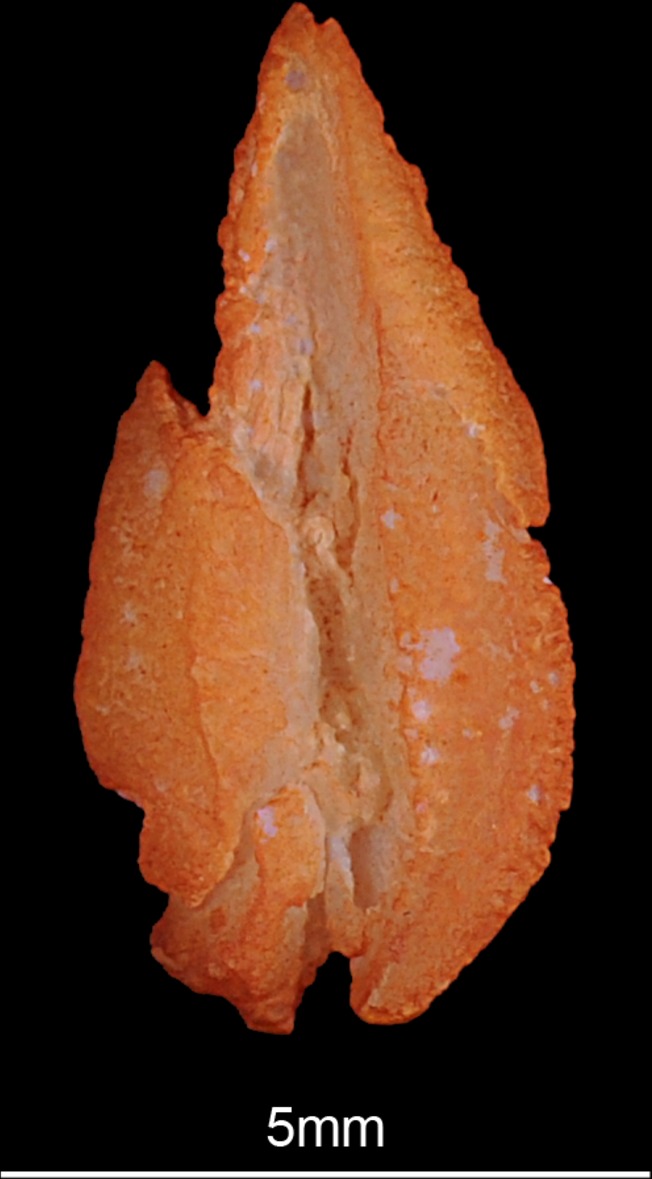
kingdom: Animalia
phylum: Chordata
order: Characiformes
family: Distichodontidae
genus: Distichodus
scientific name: Distichodus lusosso
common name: Longsnout distichodus
